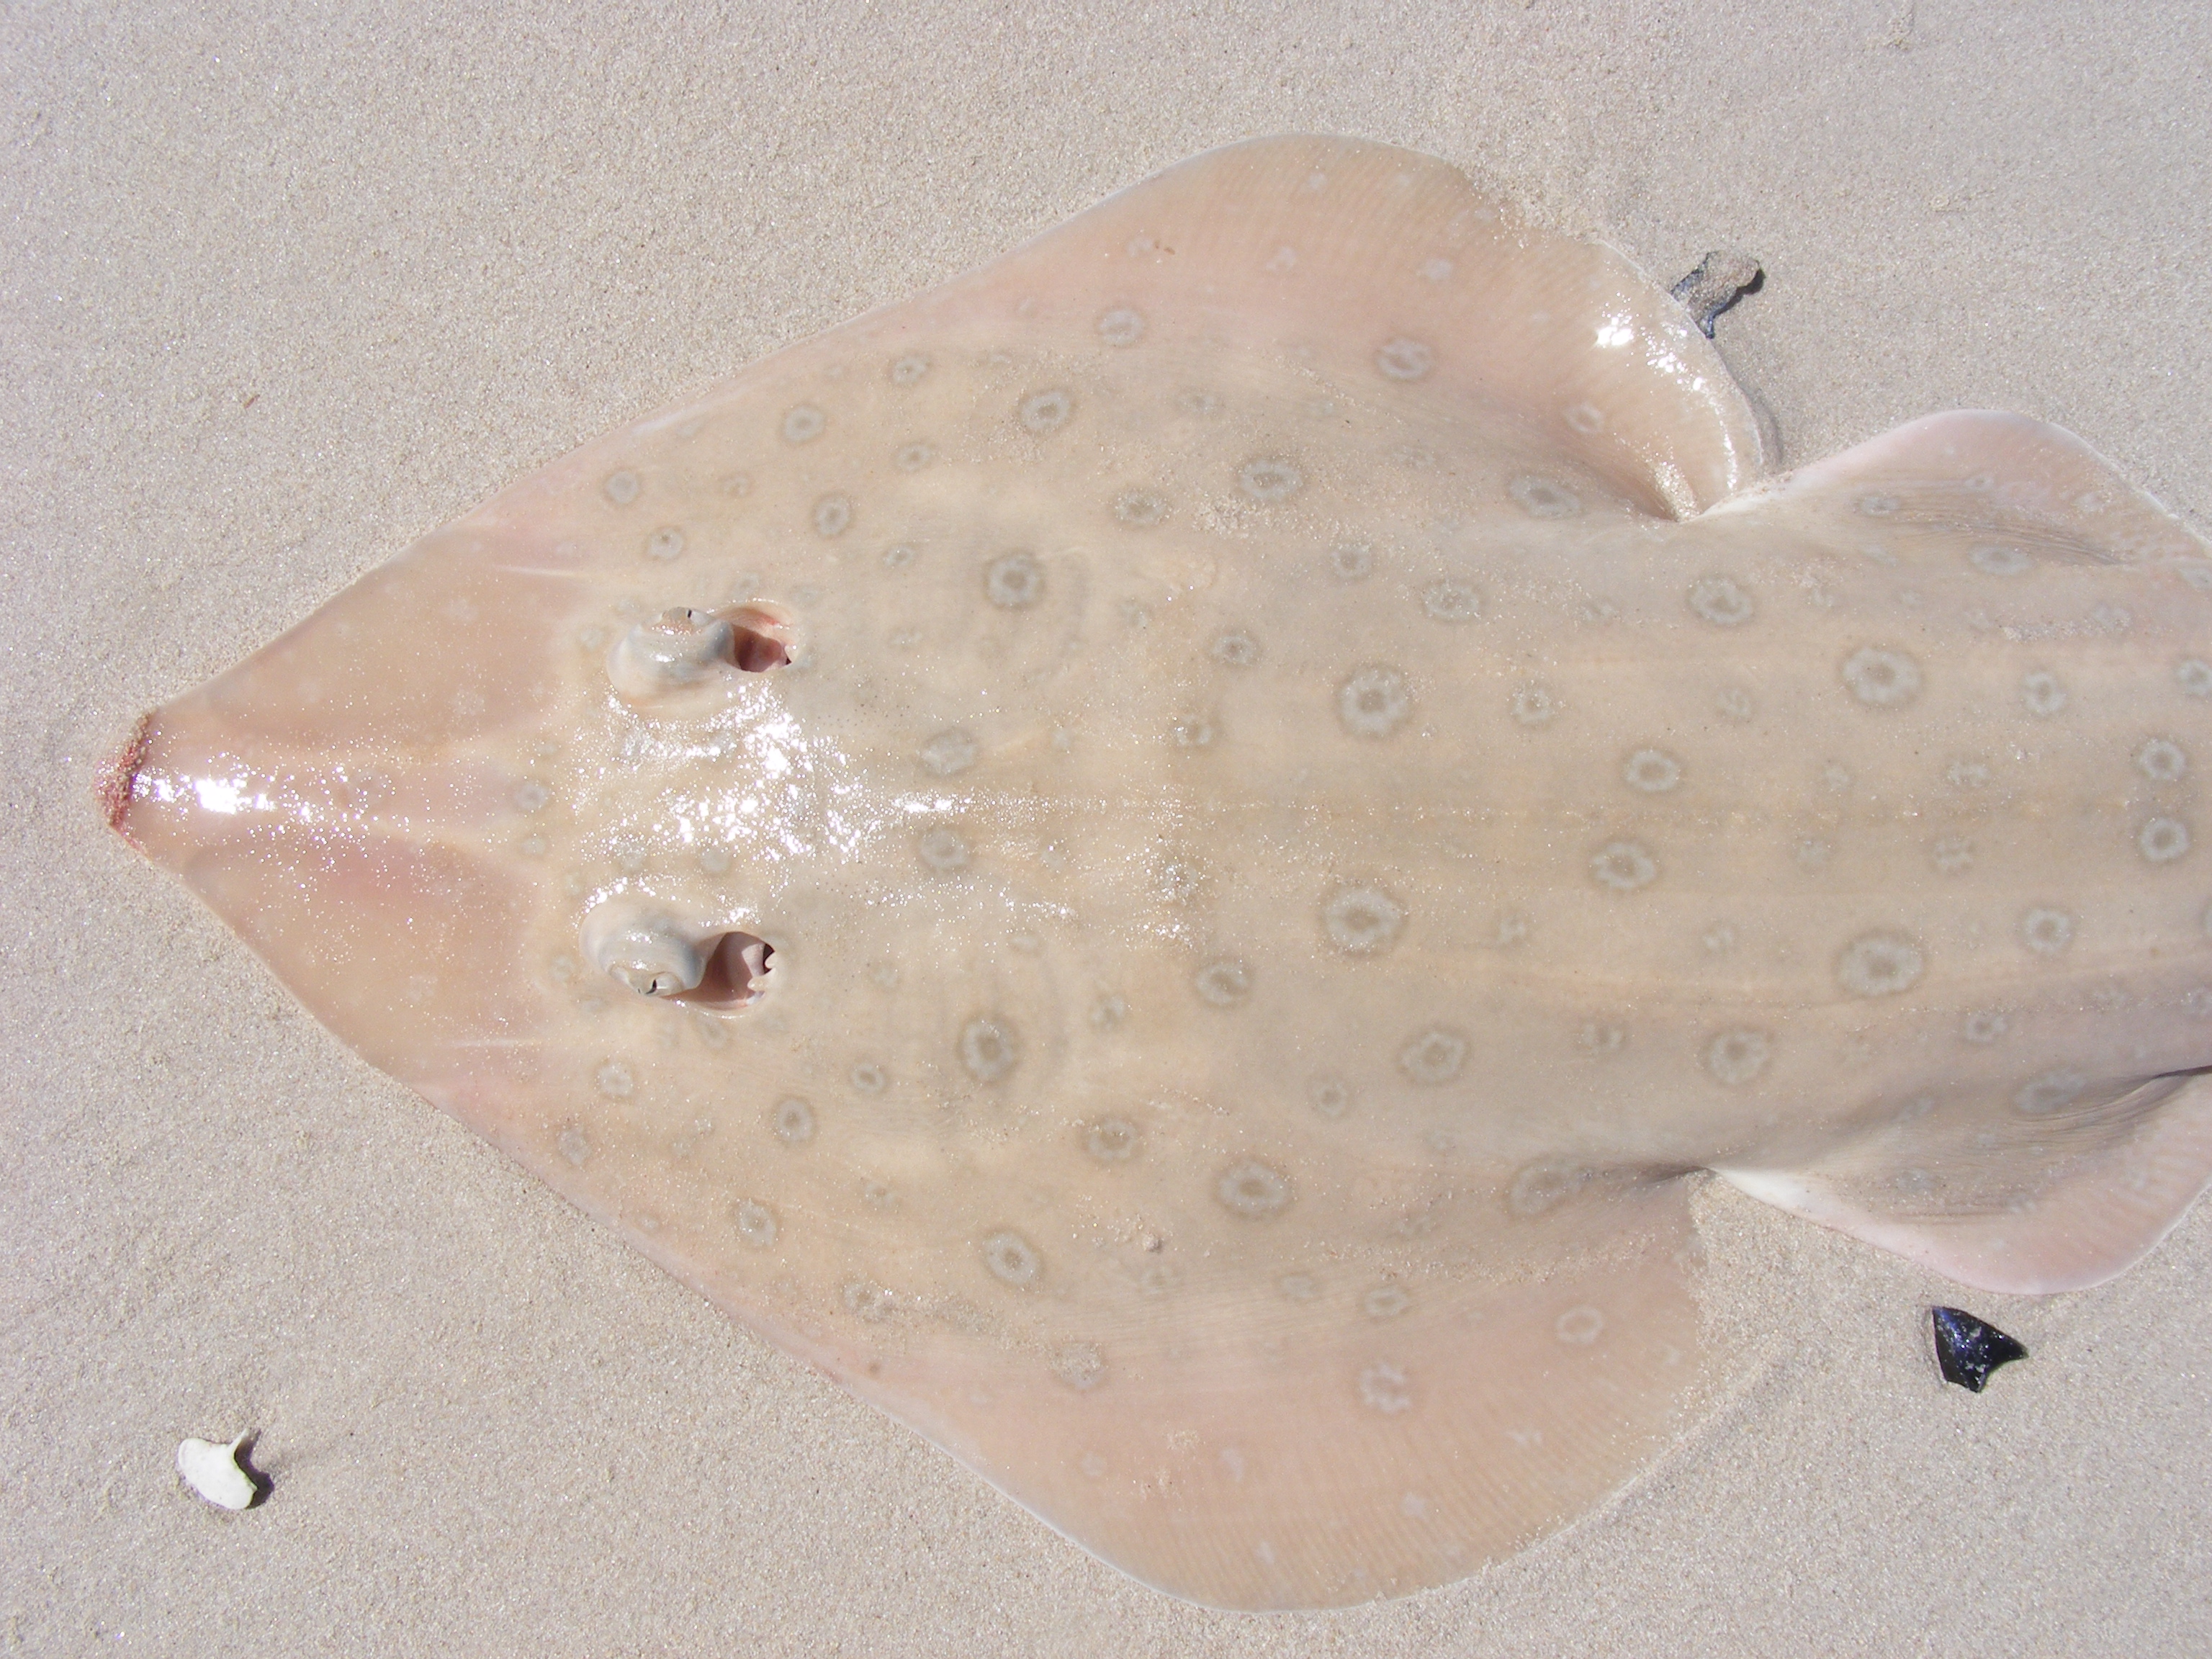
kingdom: Animalia
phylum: Chordata
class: Elasmobranchii
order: Rhinopristiformes
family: Rhinobatidae
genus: Acroteriobatus
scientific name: Acroteriobatus annulatus
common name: Lesser guitarfish
